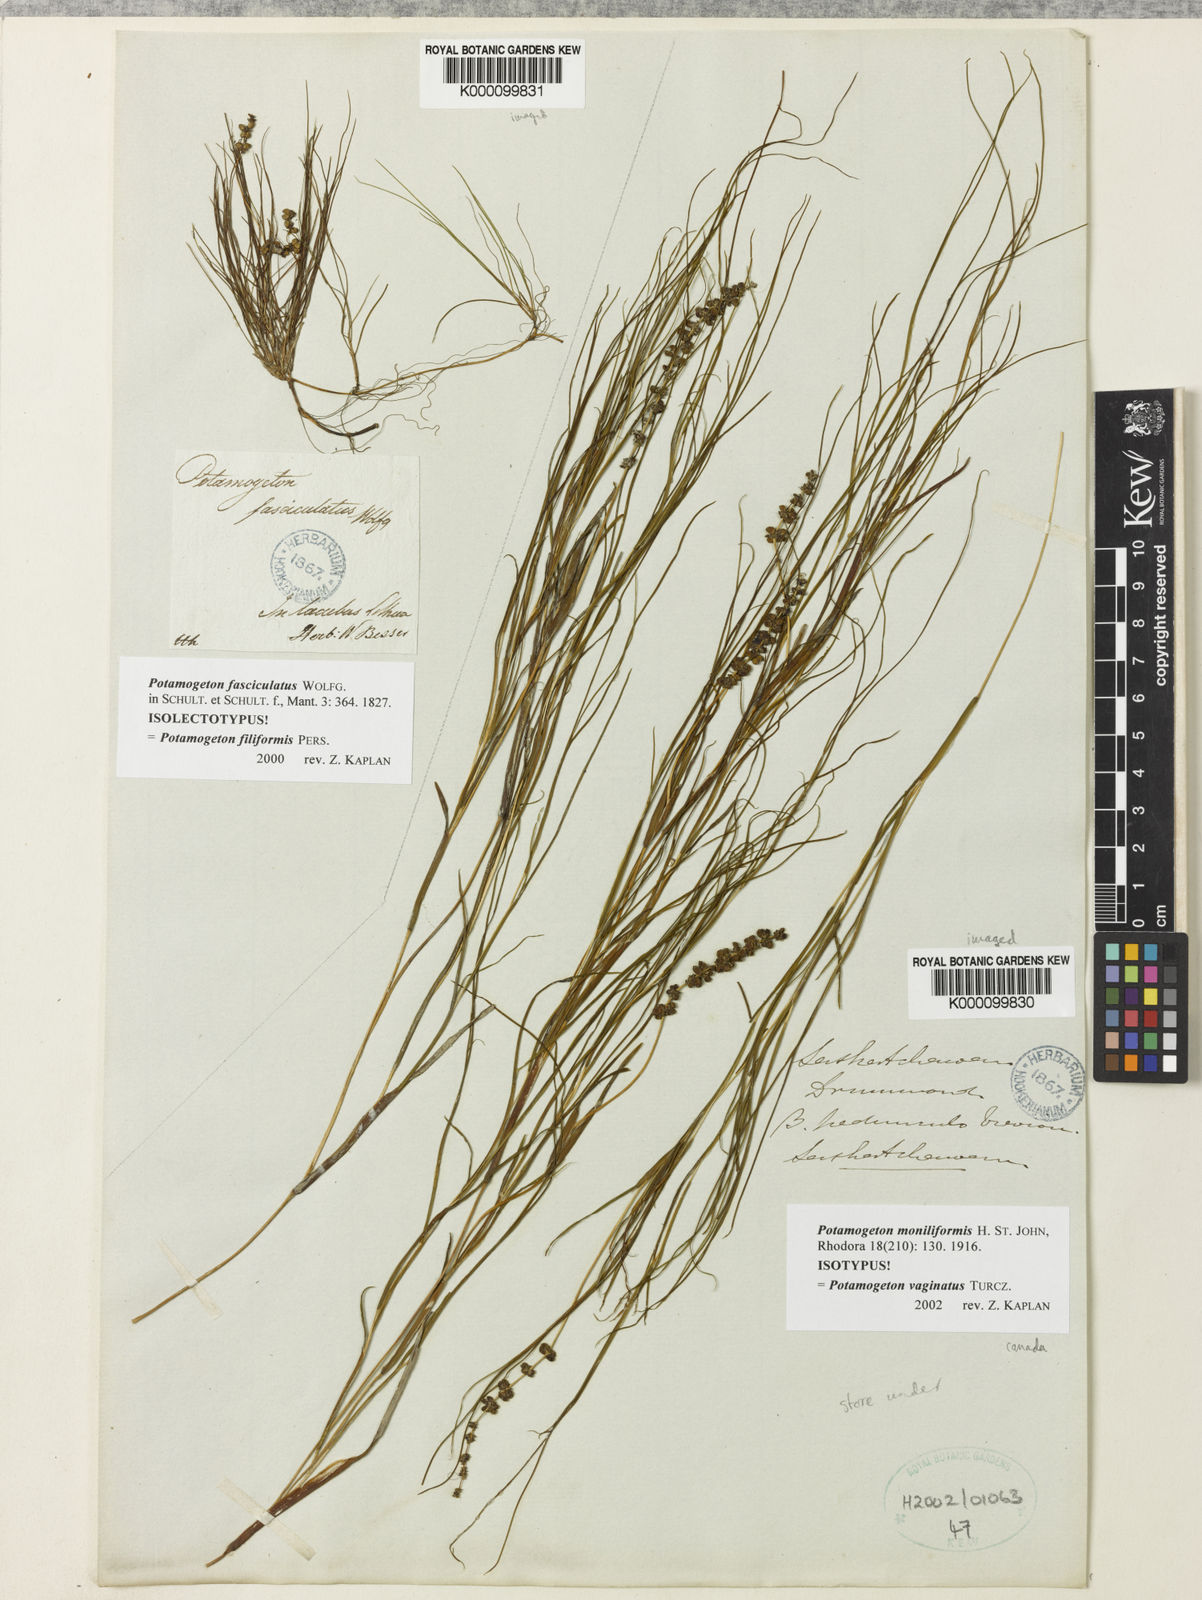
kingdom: Plantae
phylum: Tracheophyta
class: Liliopsida
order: Alismatales
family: Potamogetonaceae
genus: Stuckenia
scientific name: Stuckenia vaginata
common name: Big-sheathed pondweed
